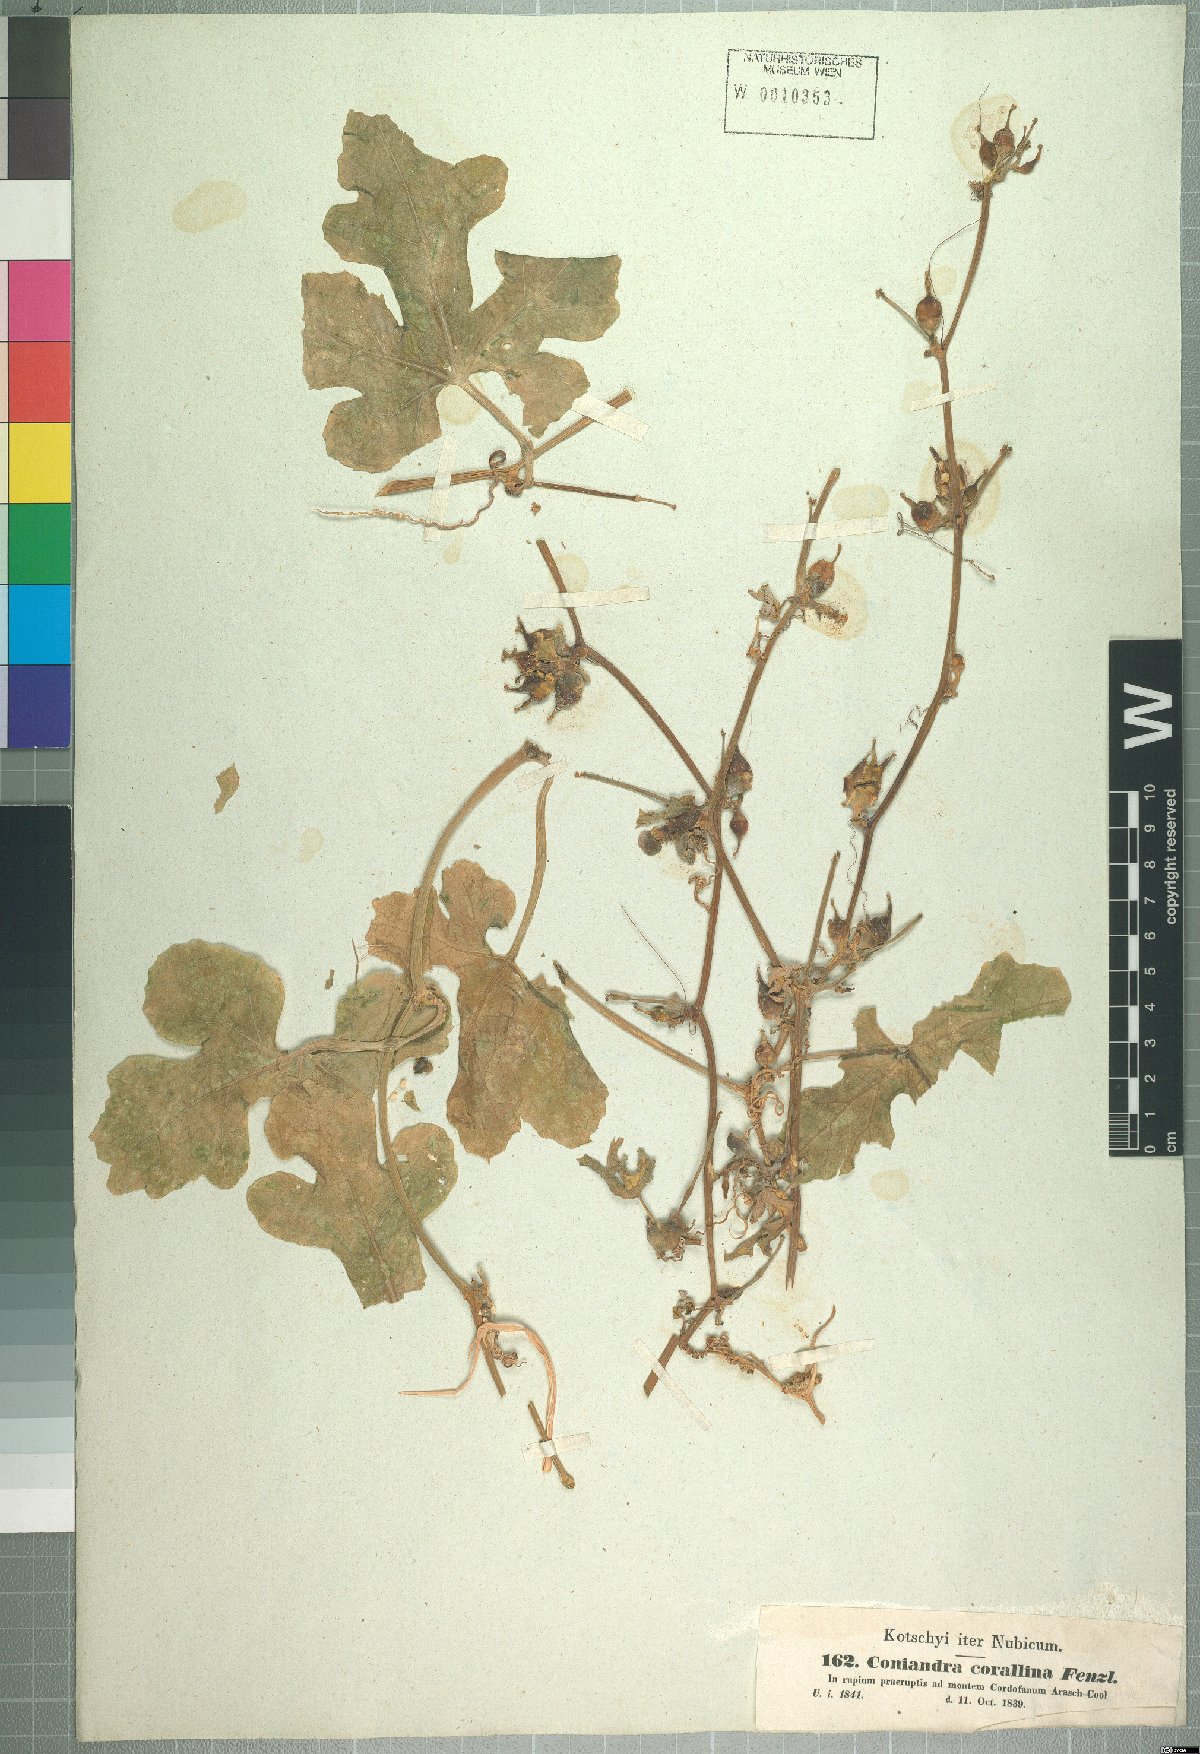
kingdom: Plantae
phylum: Tracheophyta
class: Magnoliopsida
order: Cucurbitales
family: Cucurbitaceae
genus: Corallocarpus
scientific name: Corallocarpus epigaeus
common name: Indian bryonia
